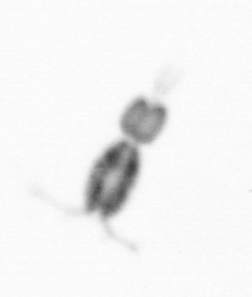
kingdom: Animalia
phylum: Arthropoda
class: Copepoda
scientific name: Copepoda
